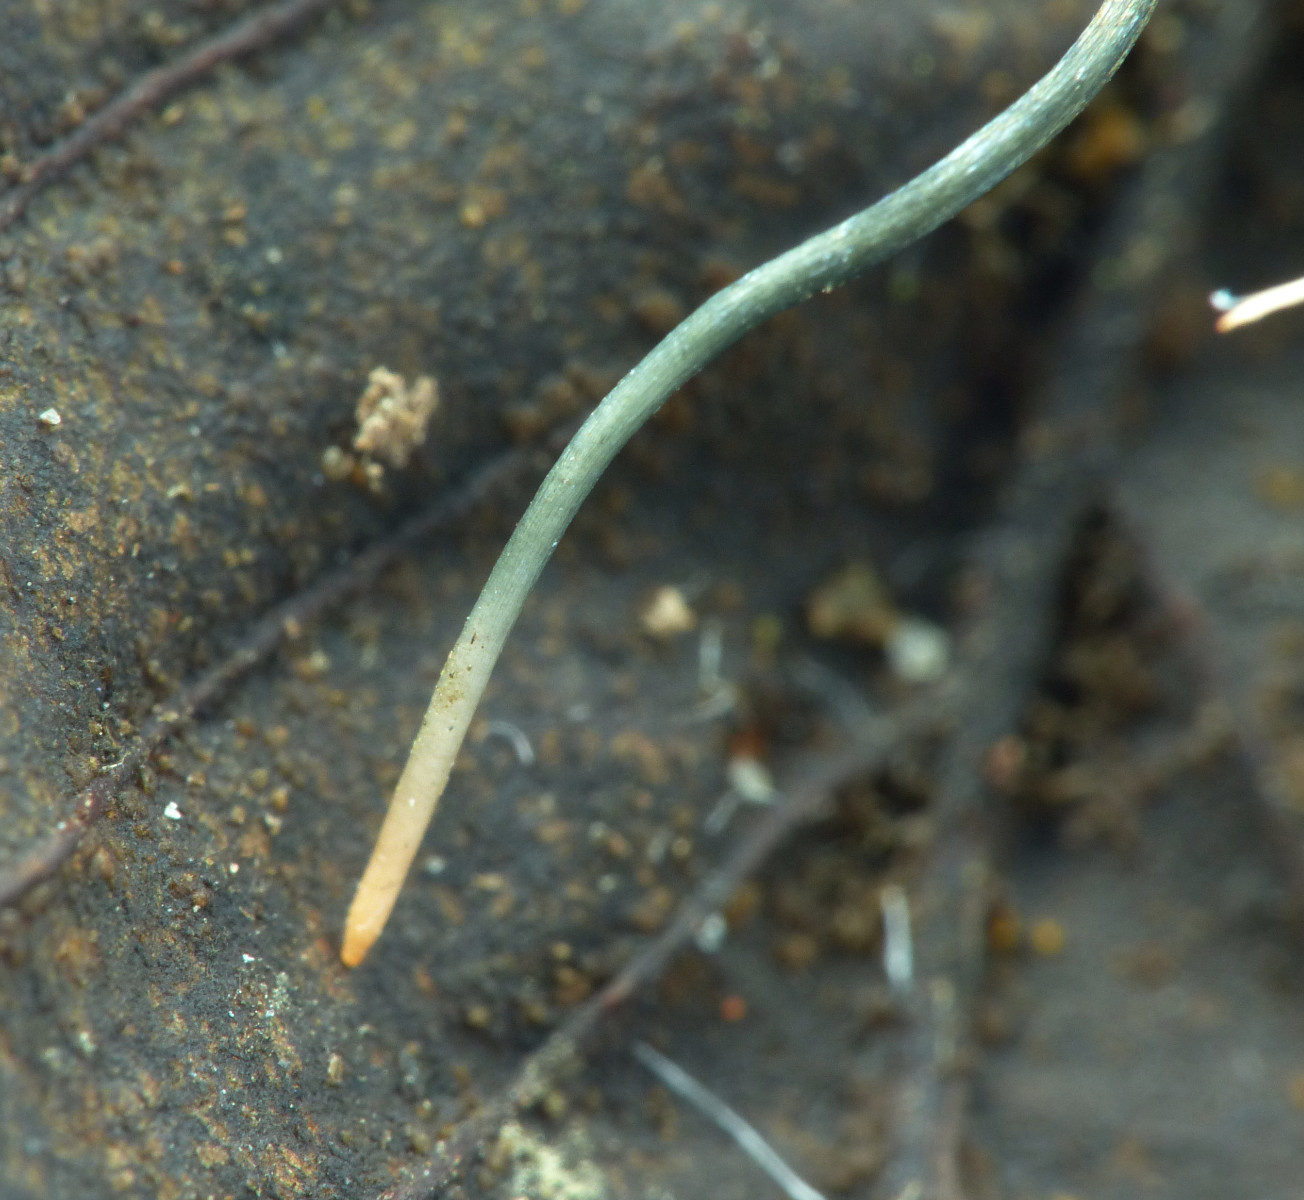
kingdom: Fungi
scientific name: Fungi
